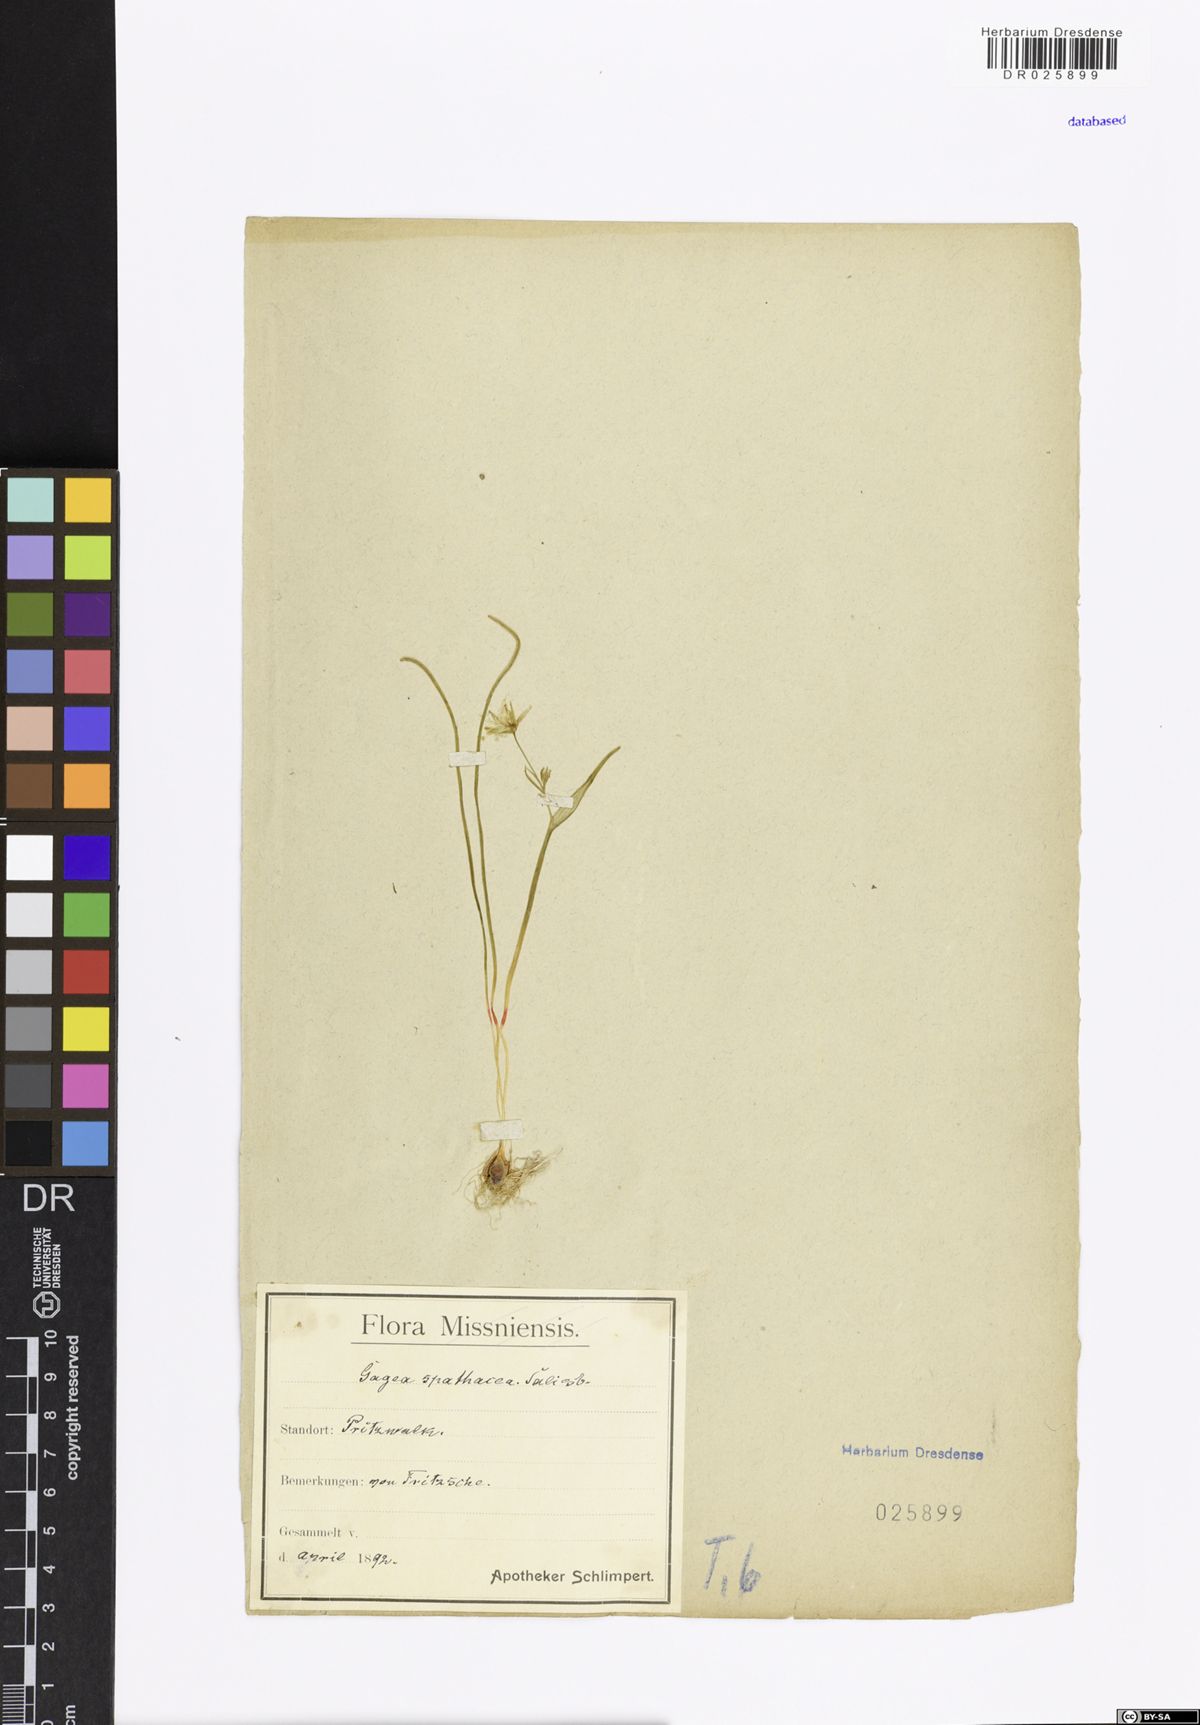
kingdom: Plantae
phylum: Tracheophyta
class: Liliopsida
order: Liliales
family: Liliaceae
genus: Gagea
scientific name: Gagea spathacea
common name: Belgian gagea
